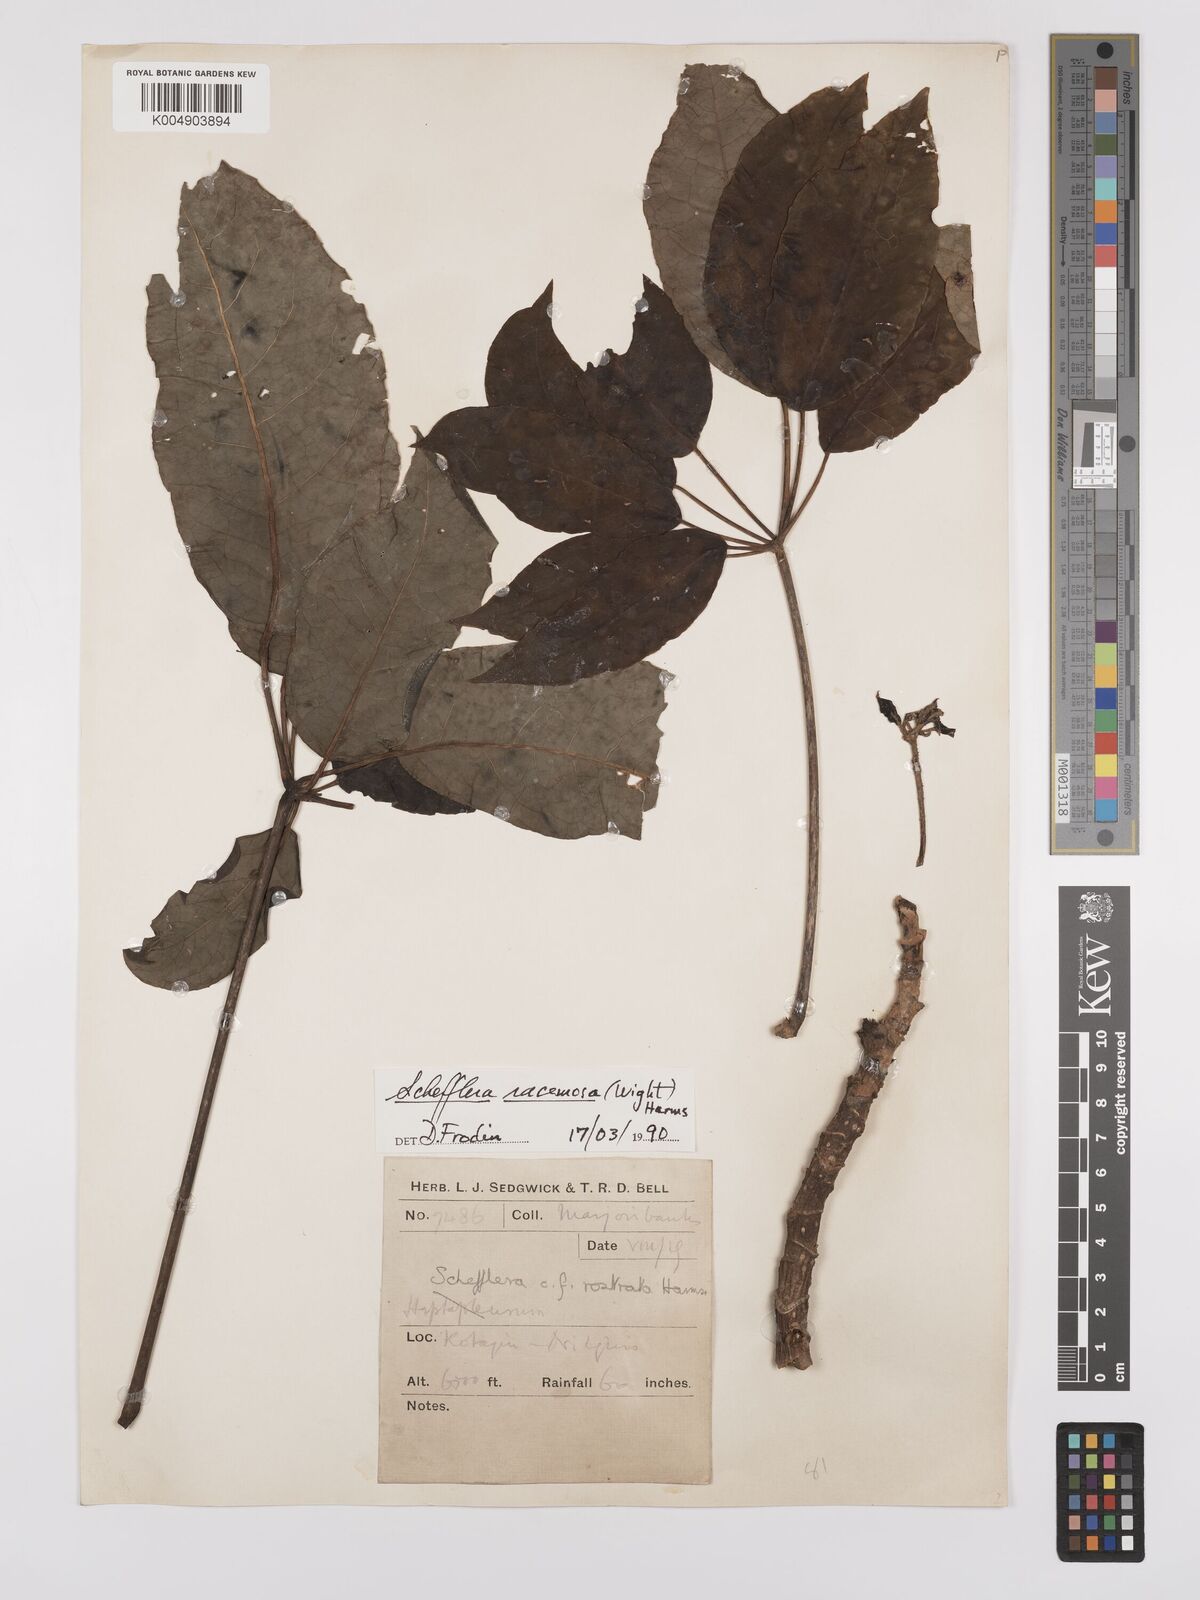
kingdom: Plantae
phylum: Tracheophyta
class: Magnoliopsida
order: Apiales
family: Araliaceae
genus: Heptapleurum
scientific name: Heptapleurum
